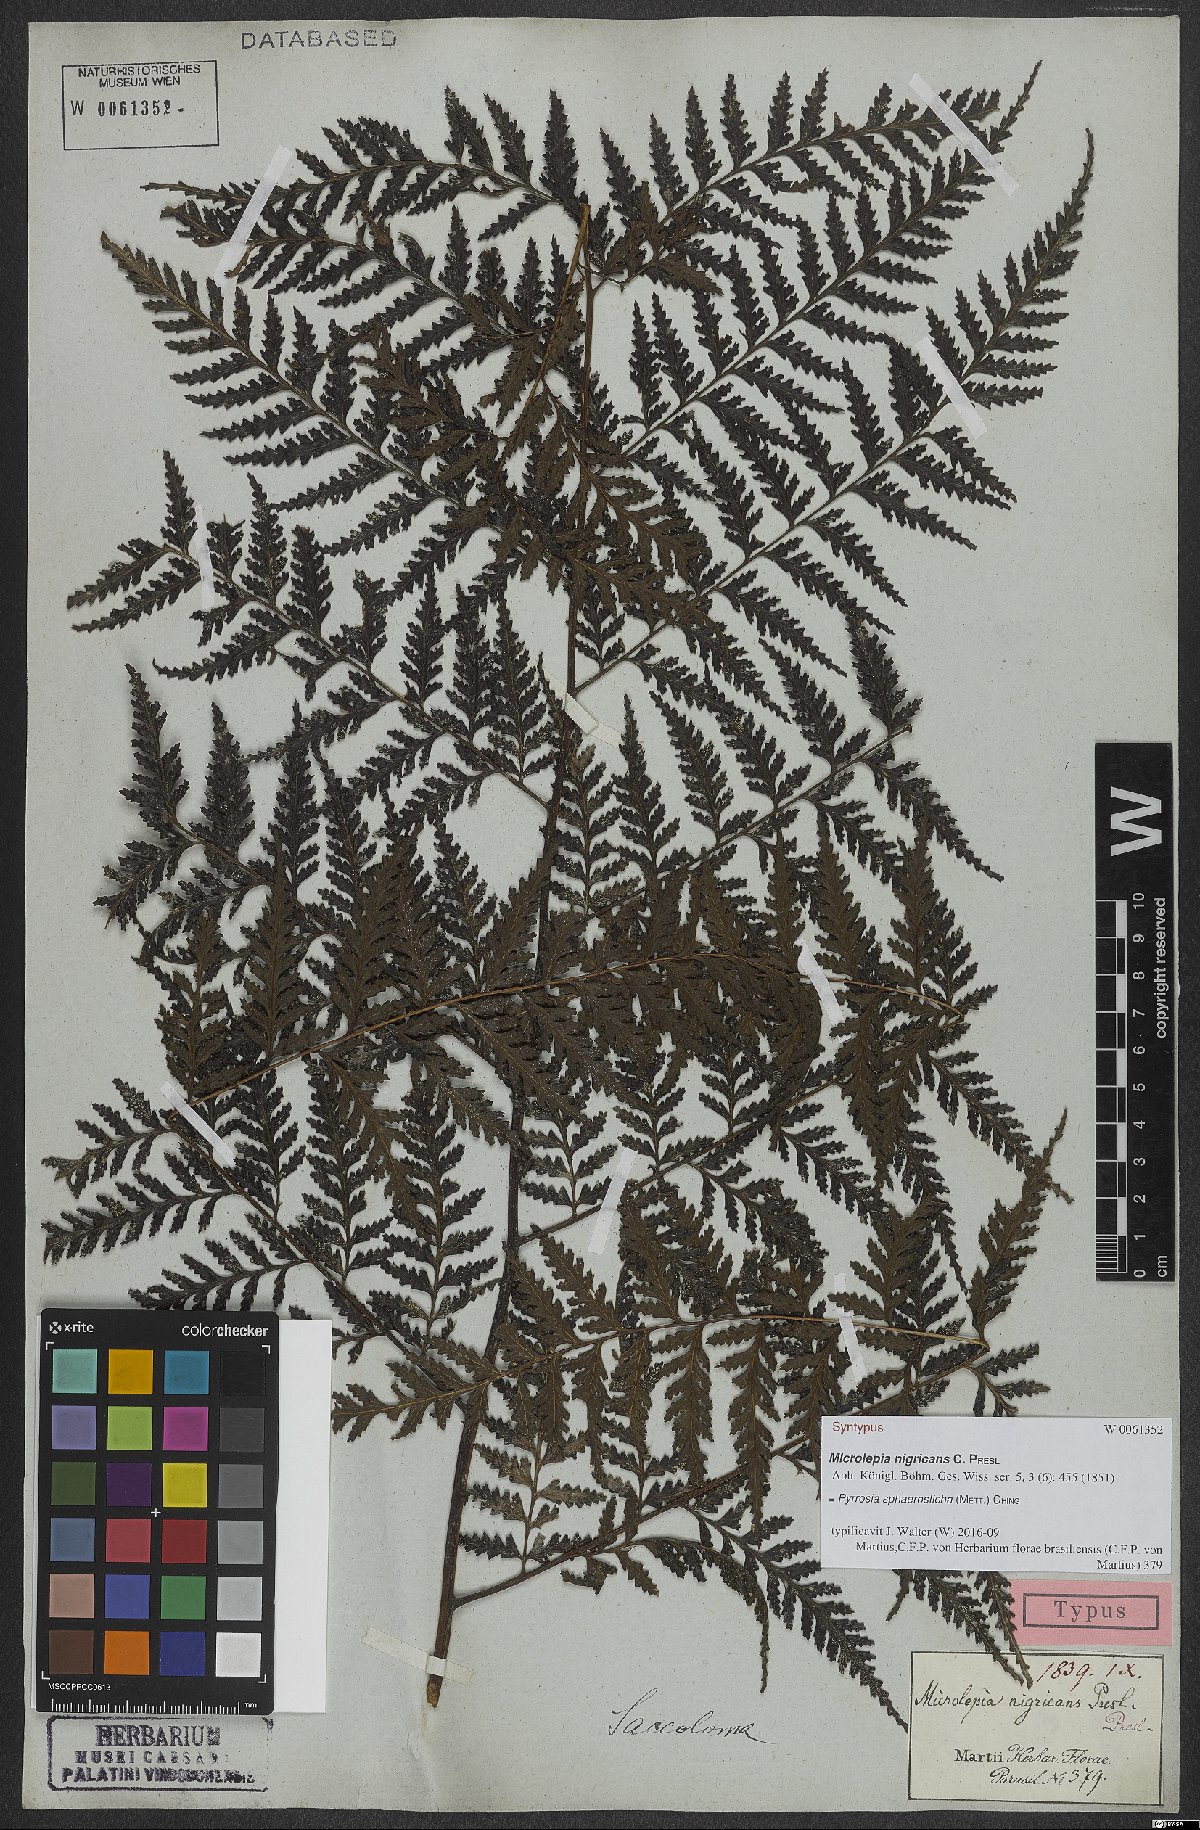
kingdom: Plantae
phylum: Tracheophyta
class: Polypodiopsida
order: Polypodiales
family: Polypodiaceae
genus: Pyrrosia
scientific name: Pyrrosia sphaerosticha
